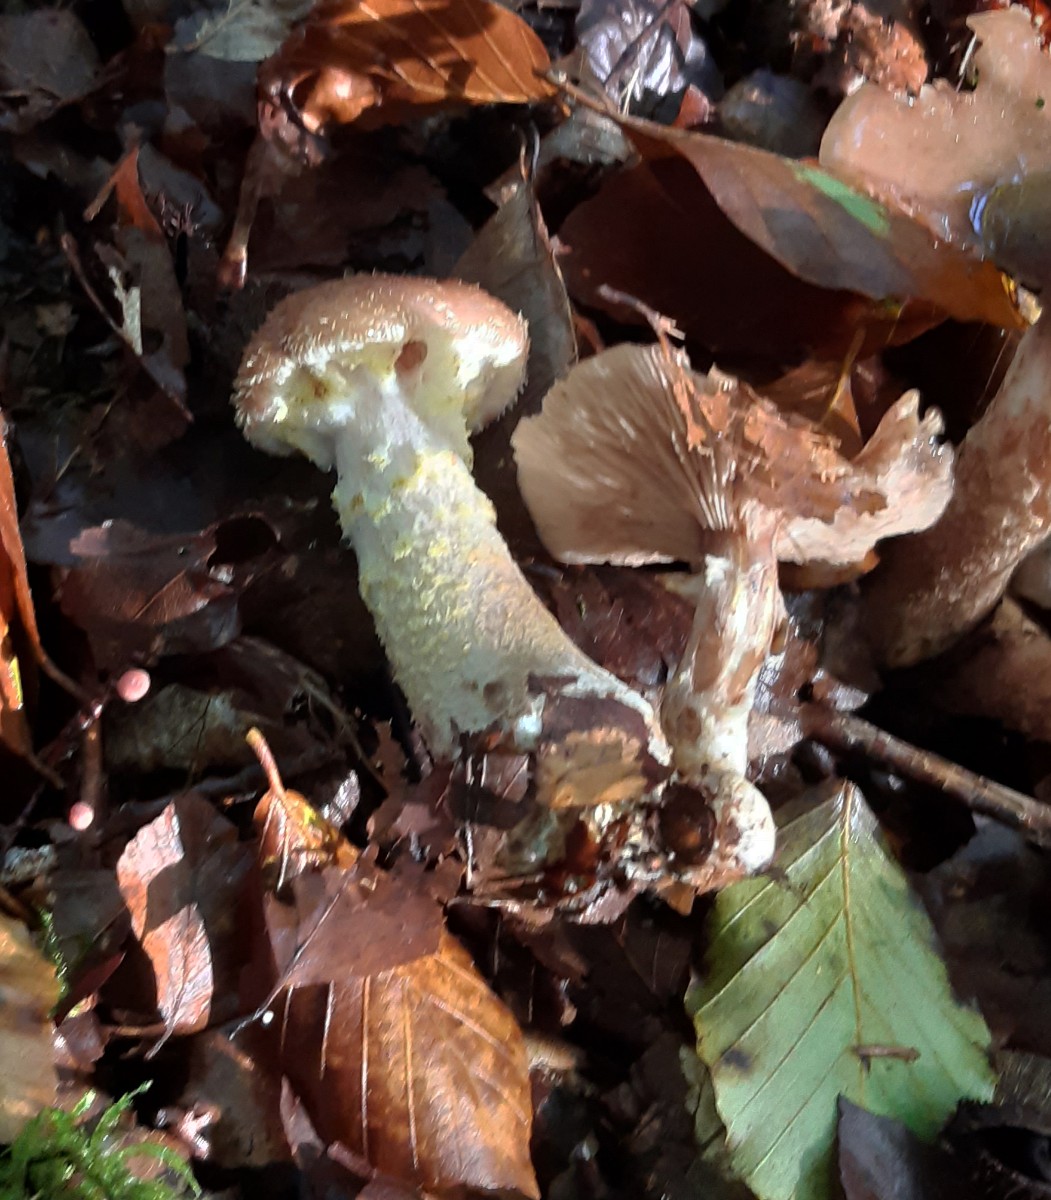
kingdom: Fungi
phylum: Basidiomycota
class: Agaricomycetes
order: Agaricales
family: Physalacriaceae
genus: Armillaria
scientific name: Armillaria lutea
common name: køllestokket honningsvamp
